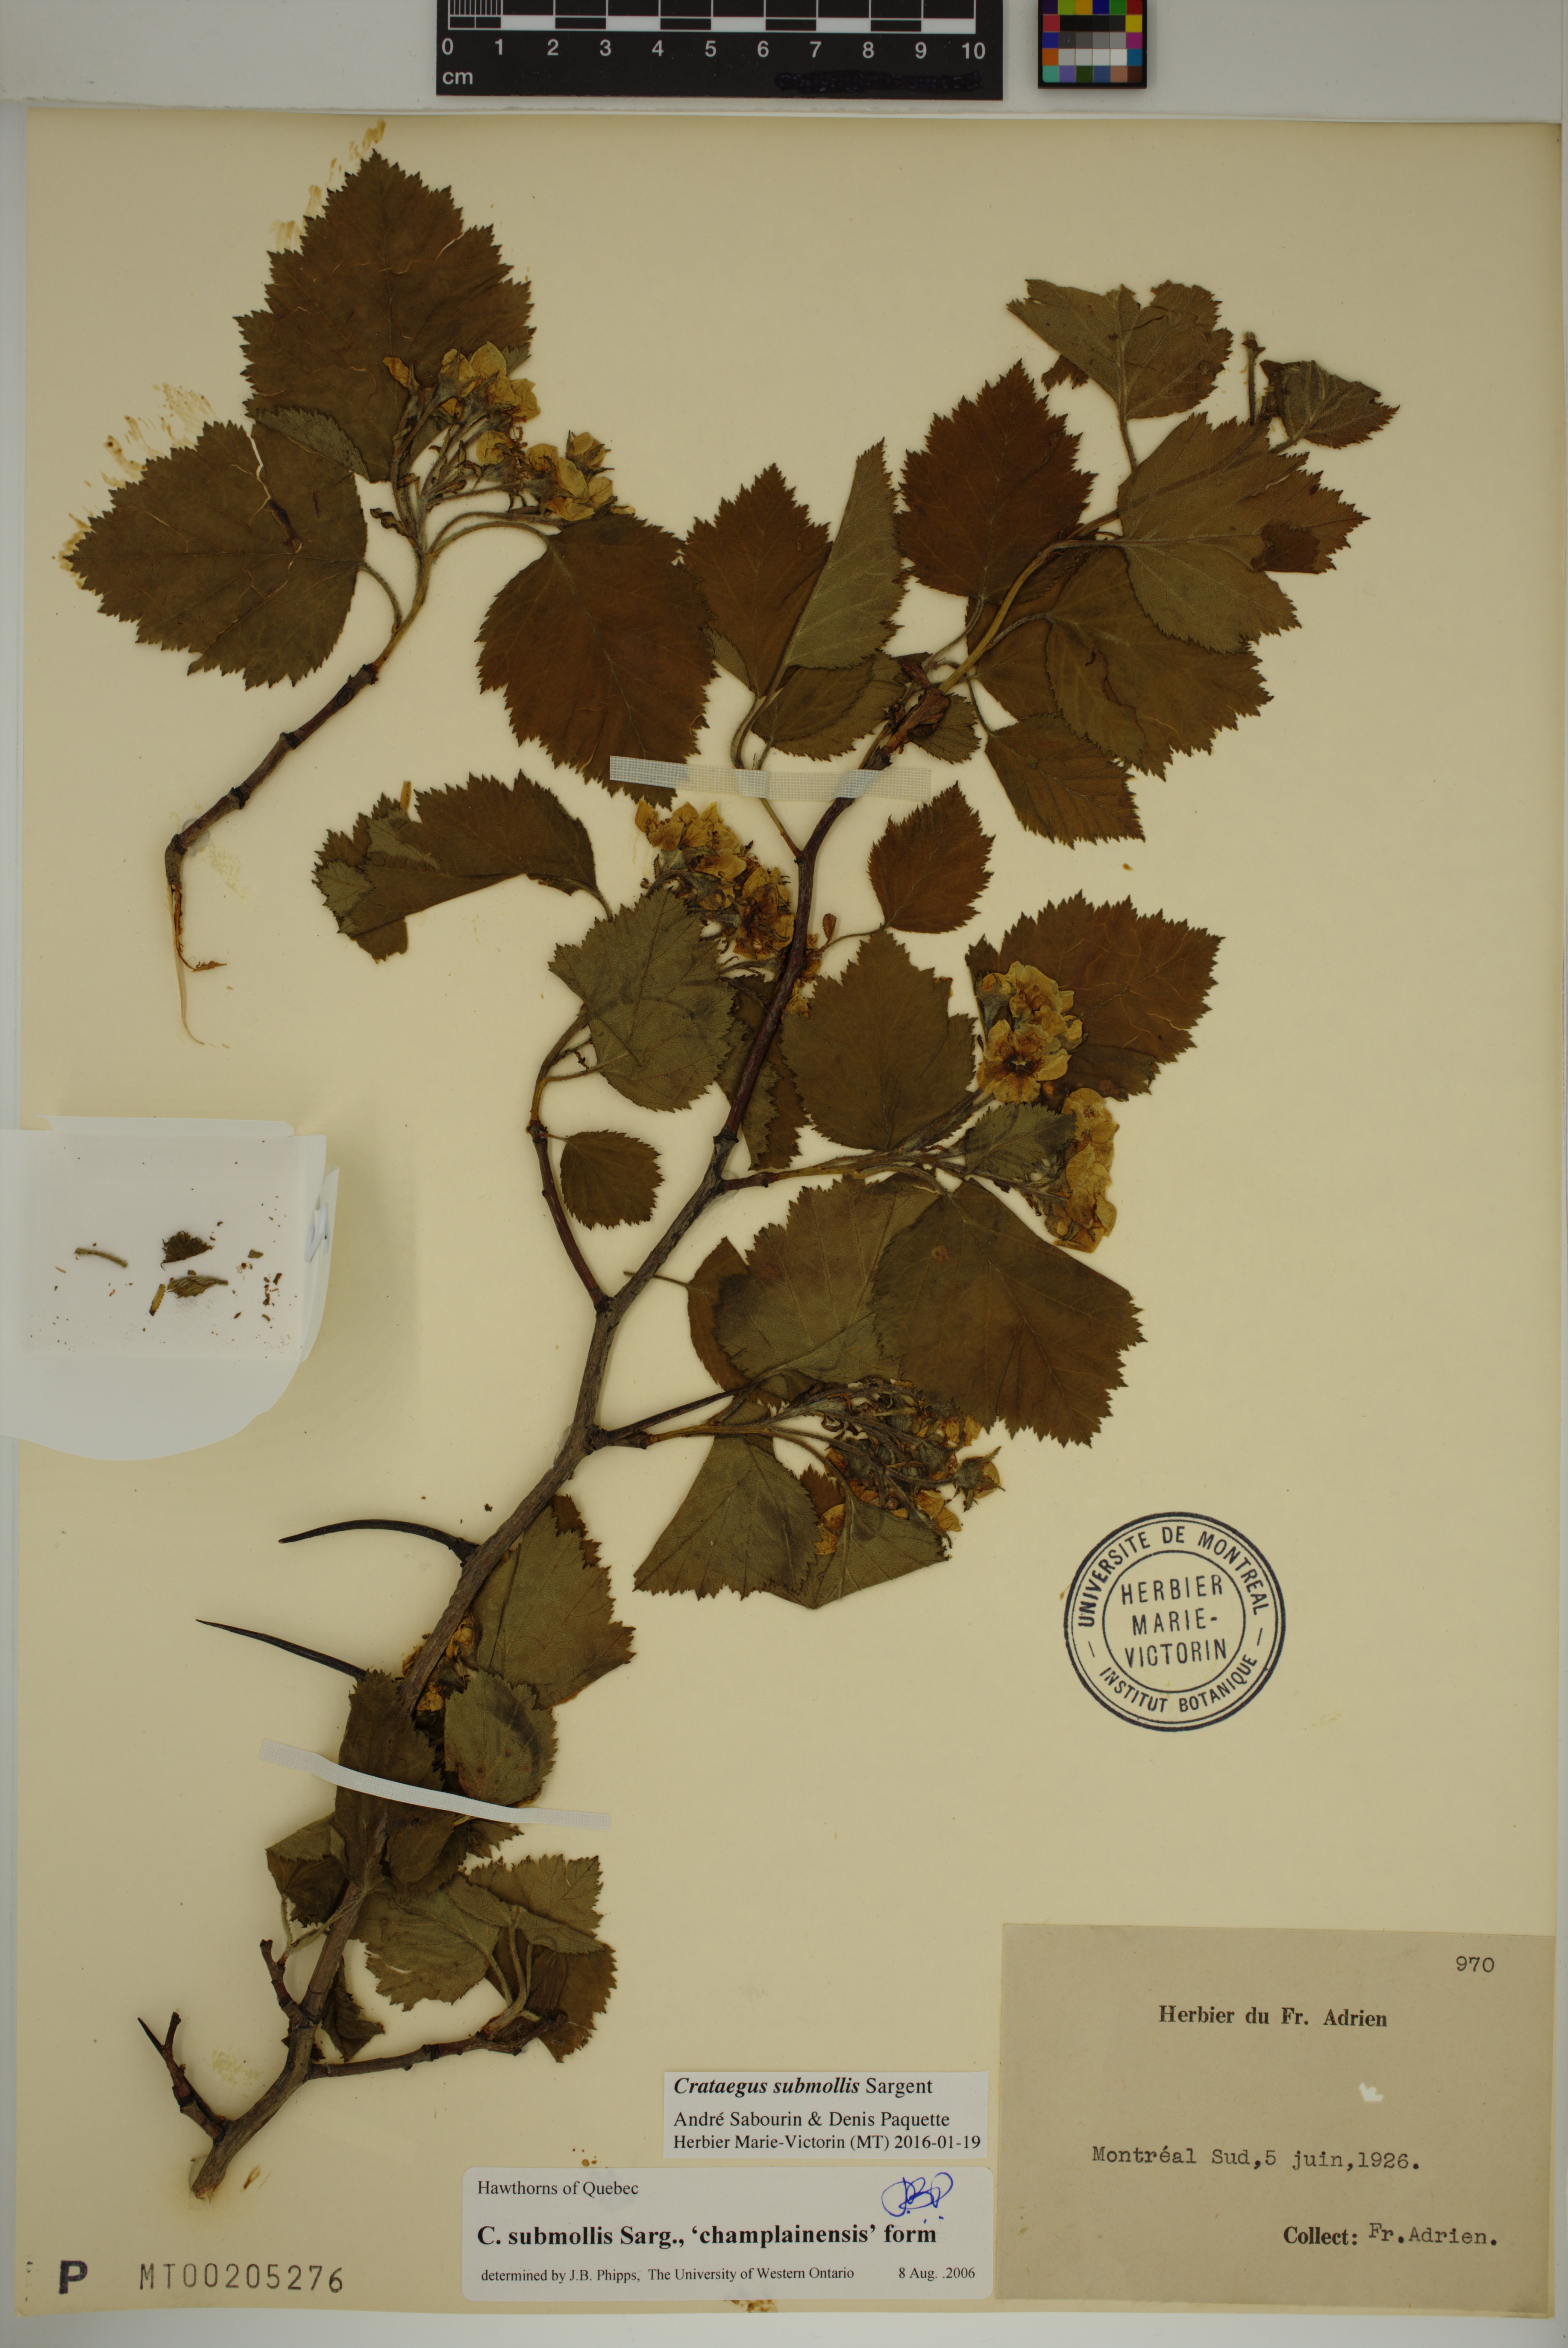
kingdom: Plantae
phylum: Tracheophyta
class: Magnoliopsida
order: Rosales
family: Rosaceae
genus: Crataegus
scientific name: Crataegus submollis
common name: Hairy cockspurthorn
